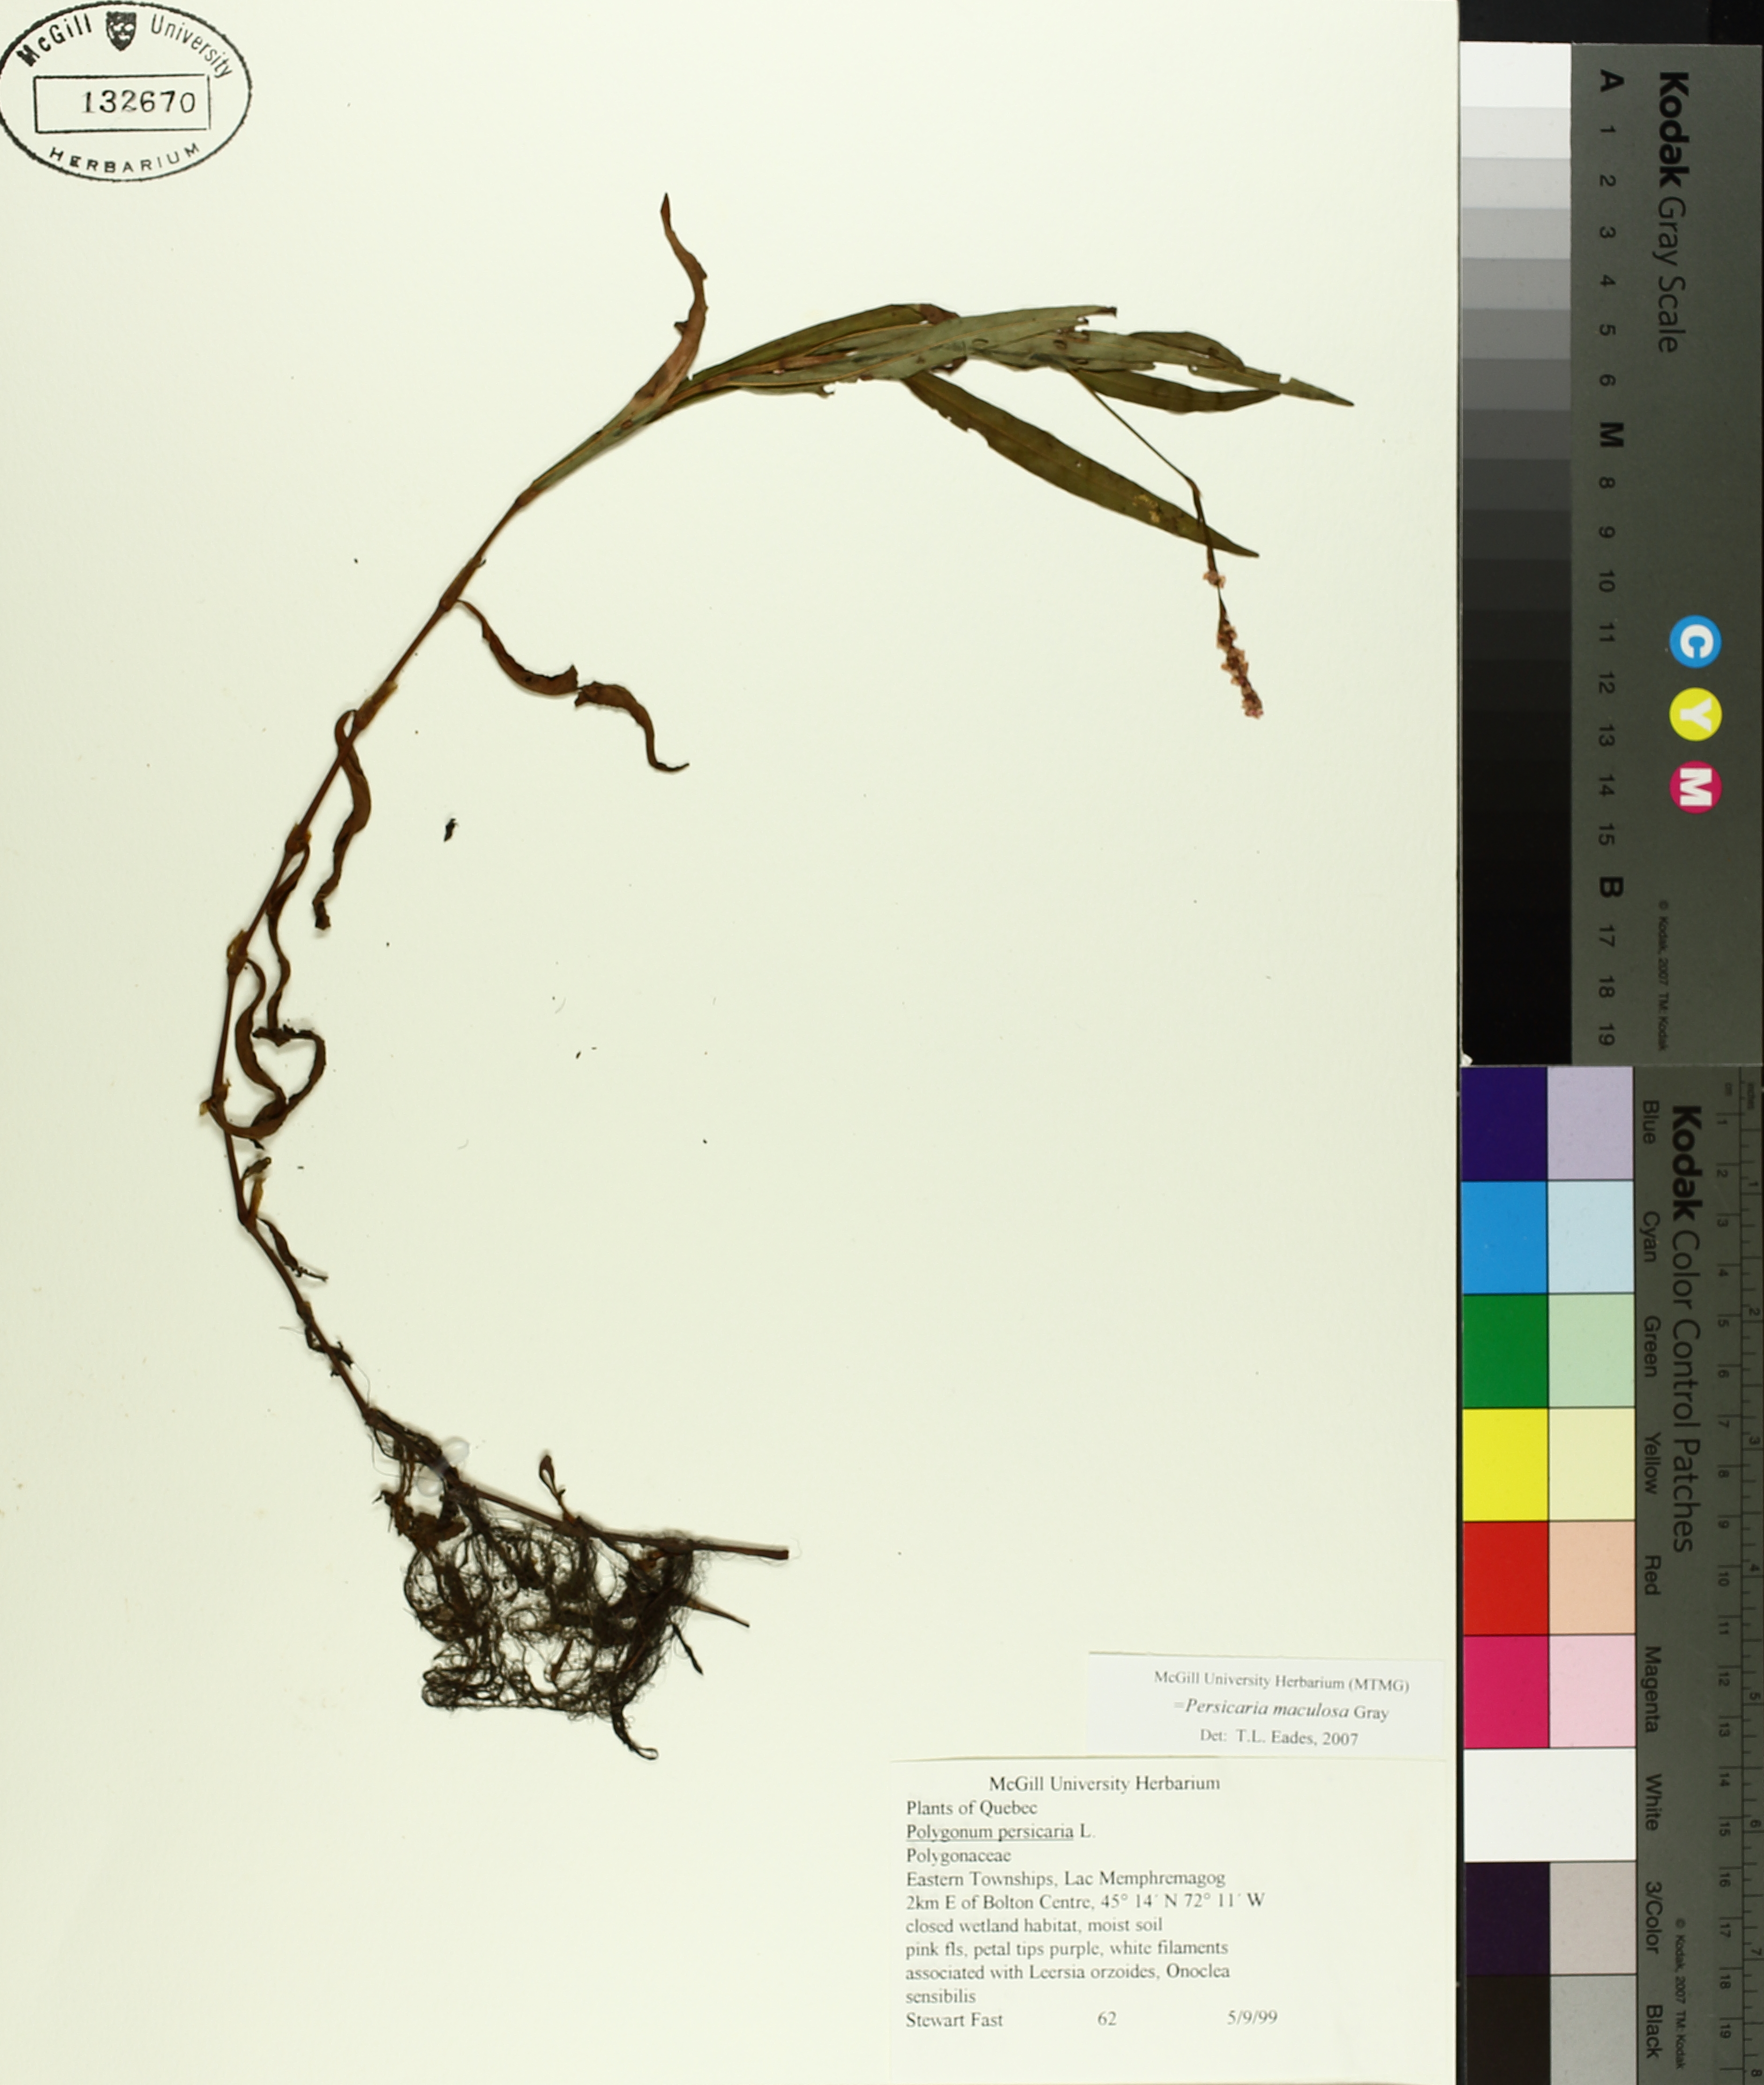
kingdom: Plantae
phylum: Tracheophyta
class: Magnoliopsida
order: Caryophyllales
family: Polygonaceae
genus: Persicaria
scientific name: Persicaria maculosa
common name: Redshank
